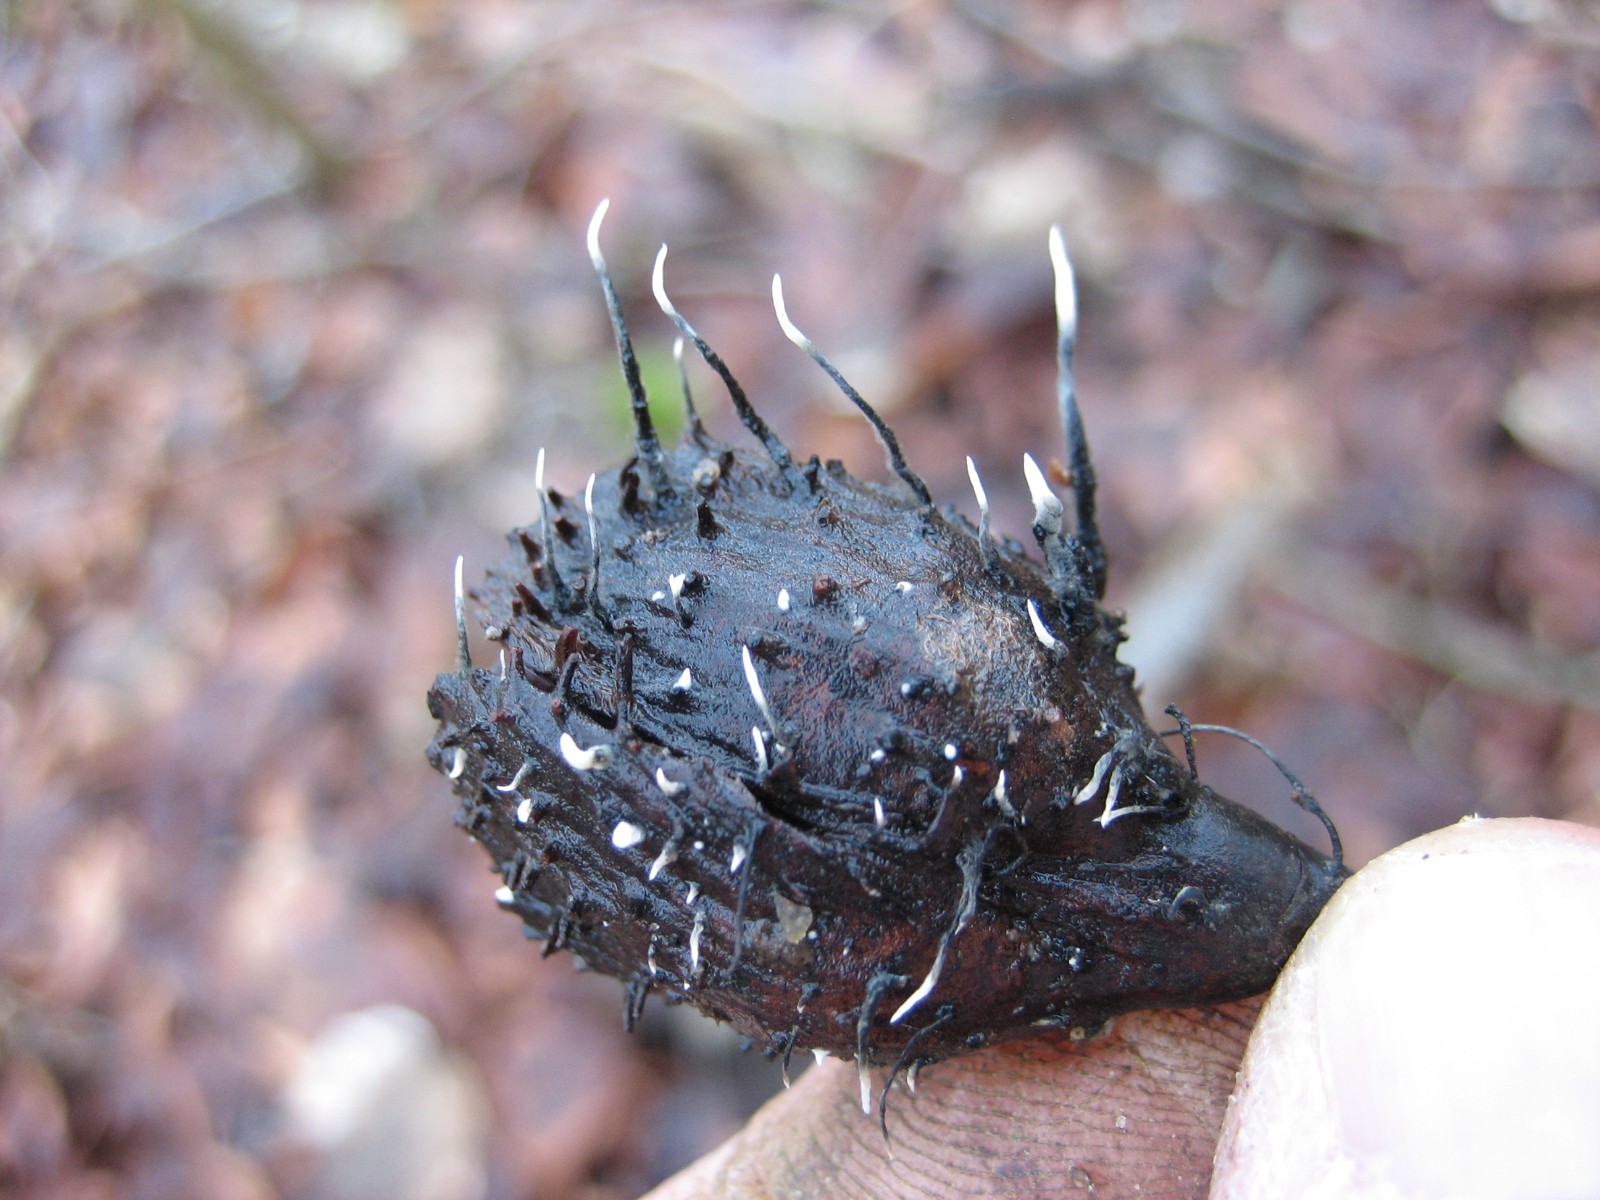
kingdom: Fungi
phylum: Ascomycota
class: Sordariomycetes
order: Xylariales
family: Xylariaceae
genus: Xylaria
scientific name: Xylaria carpophila
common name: bogskål-stødsvamp
